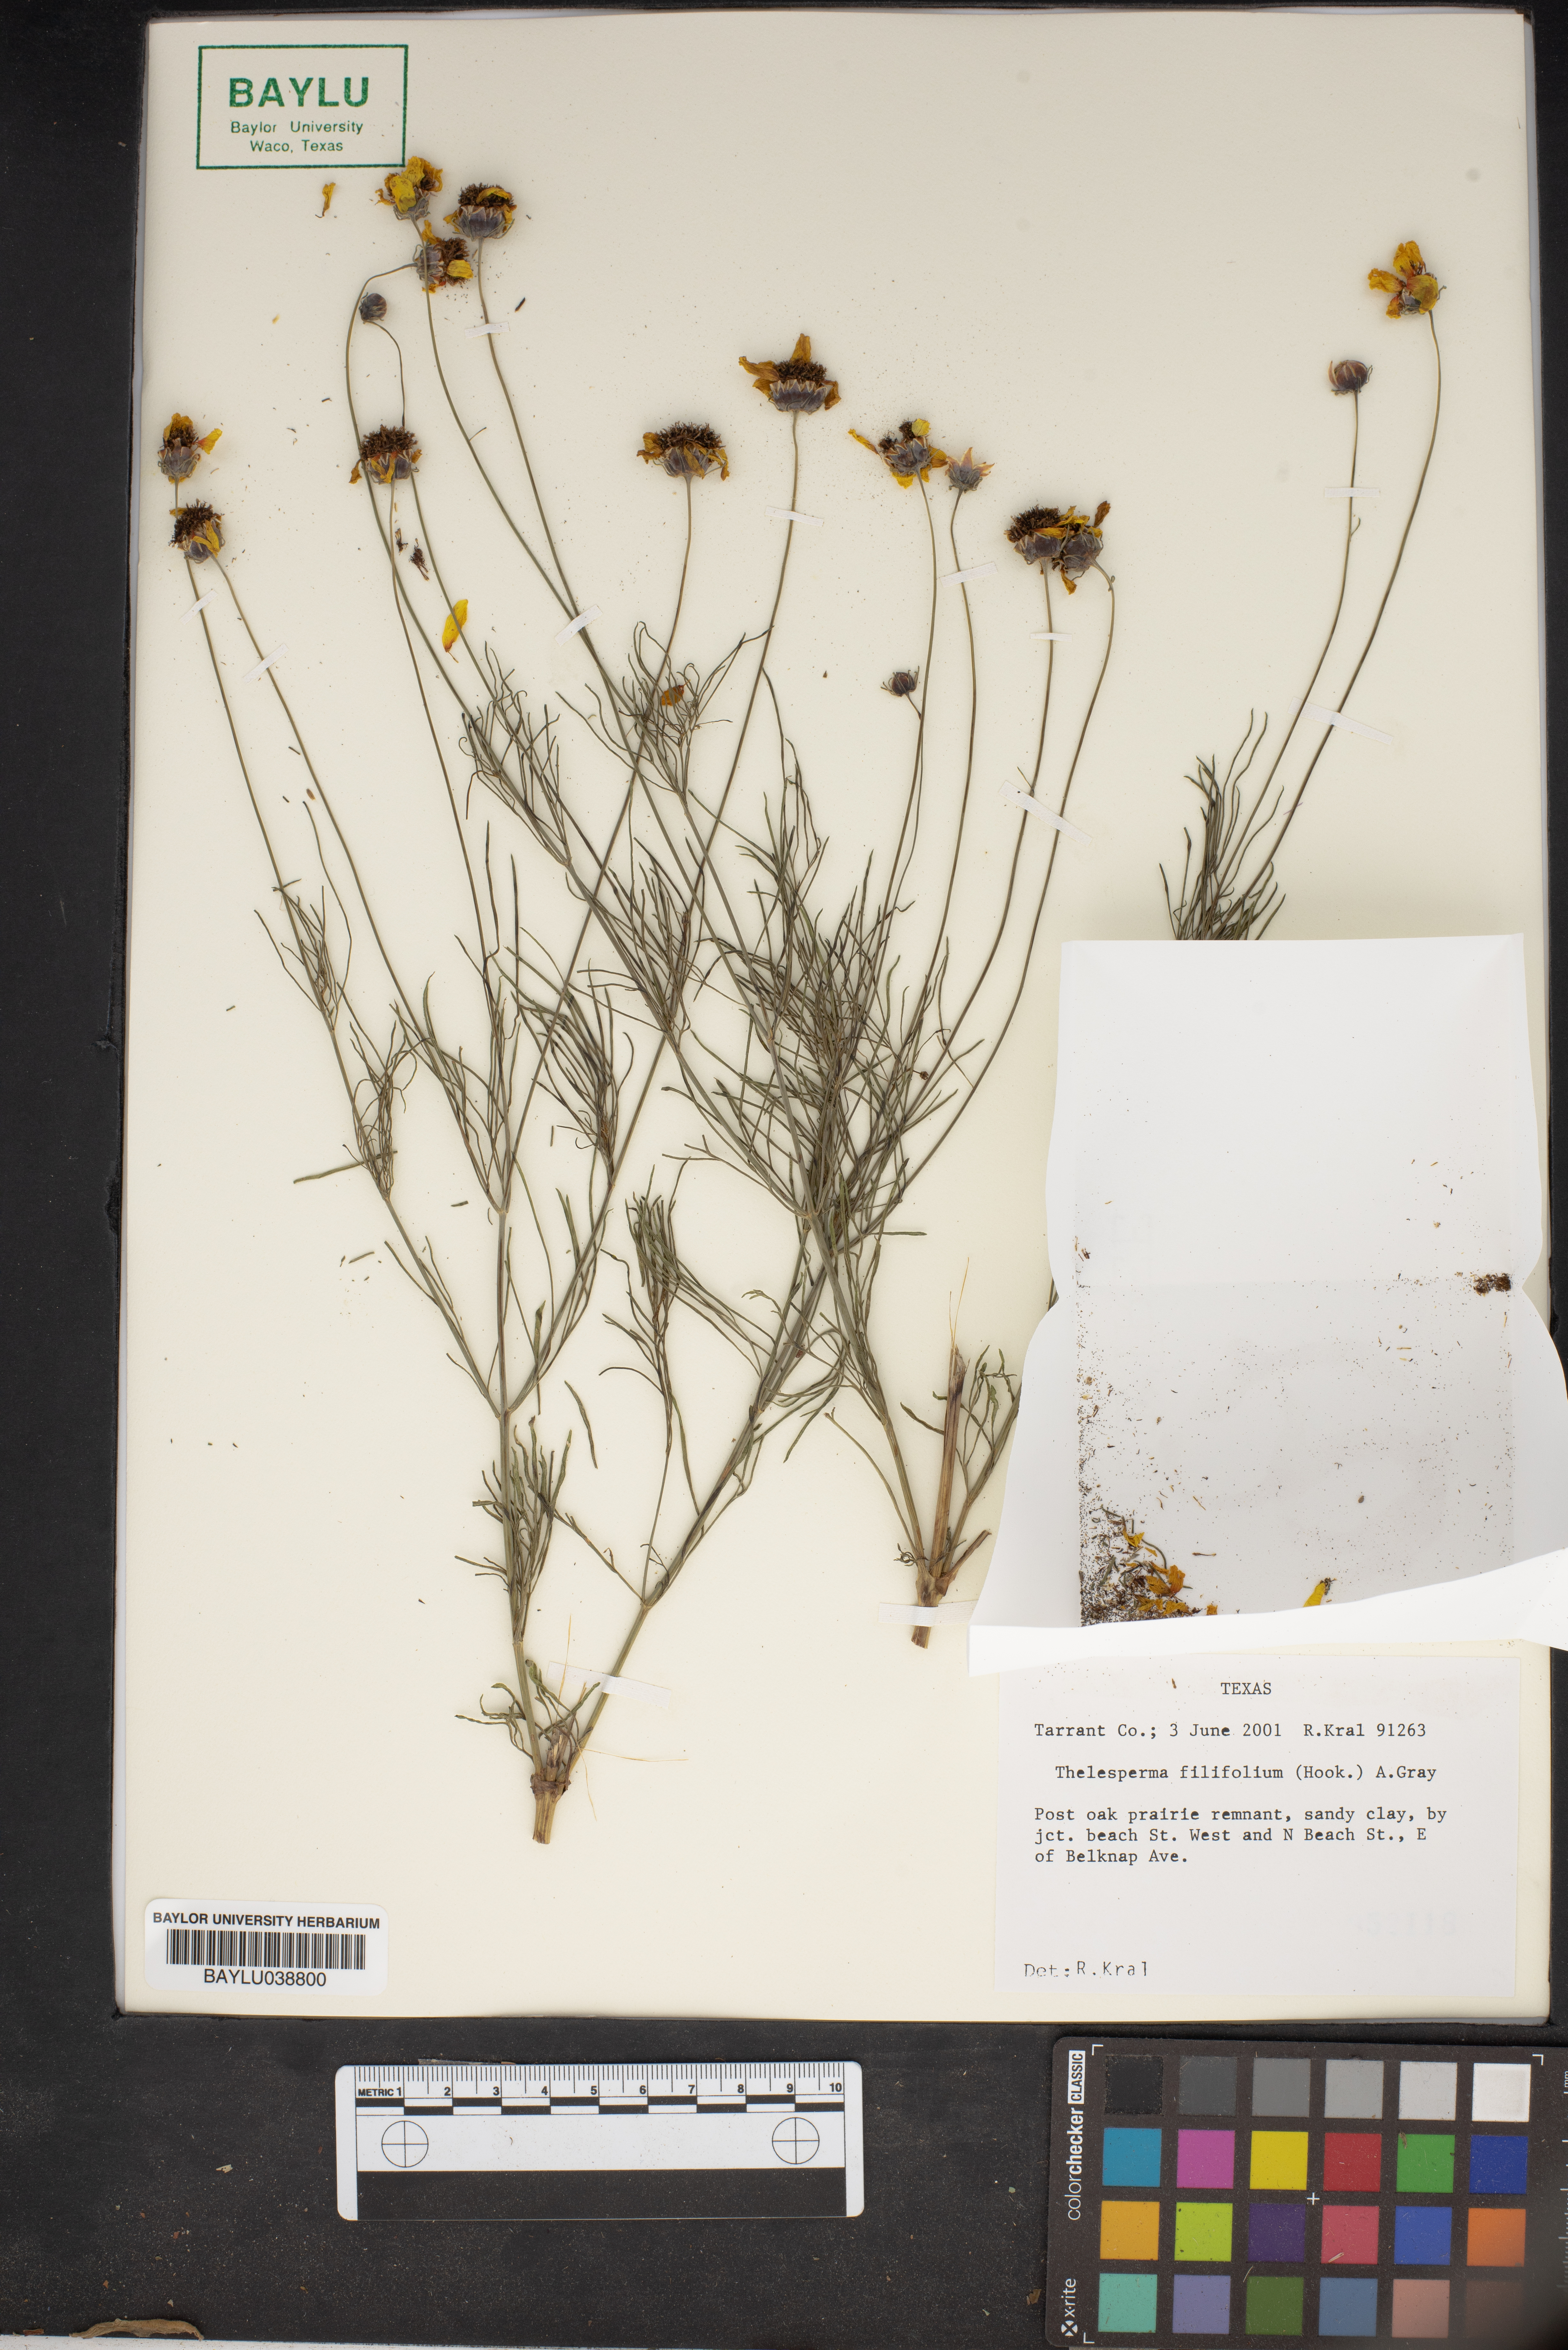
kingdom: Plantae
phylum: Tracheophyta
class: Magnoliopsida
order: Asterales
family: Asteraceae
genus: Thelesperma
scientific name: Thelesperma filifolium
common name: Stiff greenthread
